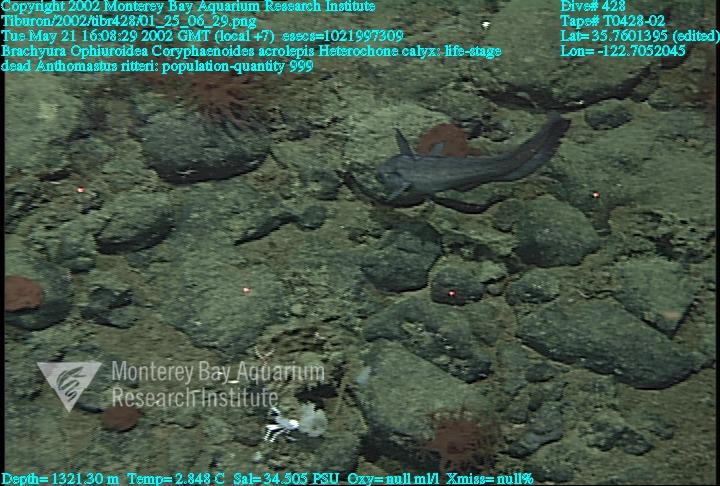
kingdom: Animalia
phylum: Porifera
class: Hexactinellida
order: Sceptrulophora
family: Aphrocallistidae
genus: Heterochone
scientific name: Heterochone calyx
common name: Fingered goblet glass sponge
